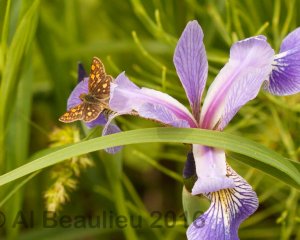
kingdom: Animalia
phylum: Arthropoda
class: Insecta
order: Lepidoptera
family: Hesperiidae
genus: Carterocephalus
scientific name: Carterocephalus palaemon
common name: Chequered Skipper
